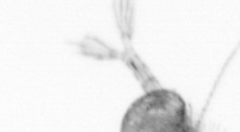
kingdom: Animalia
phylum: Arthropoda
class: Copepoda
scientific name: Copepoda
